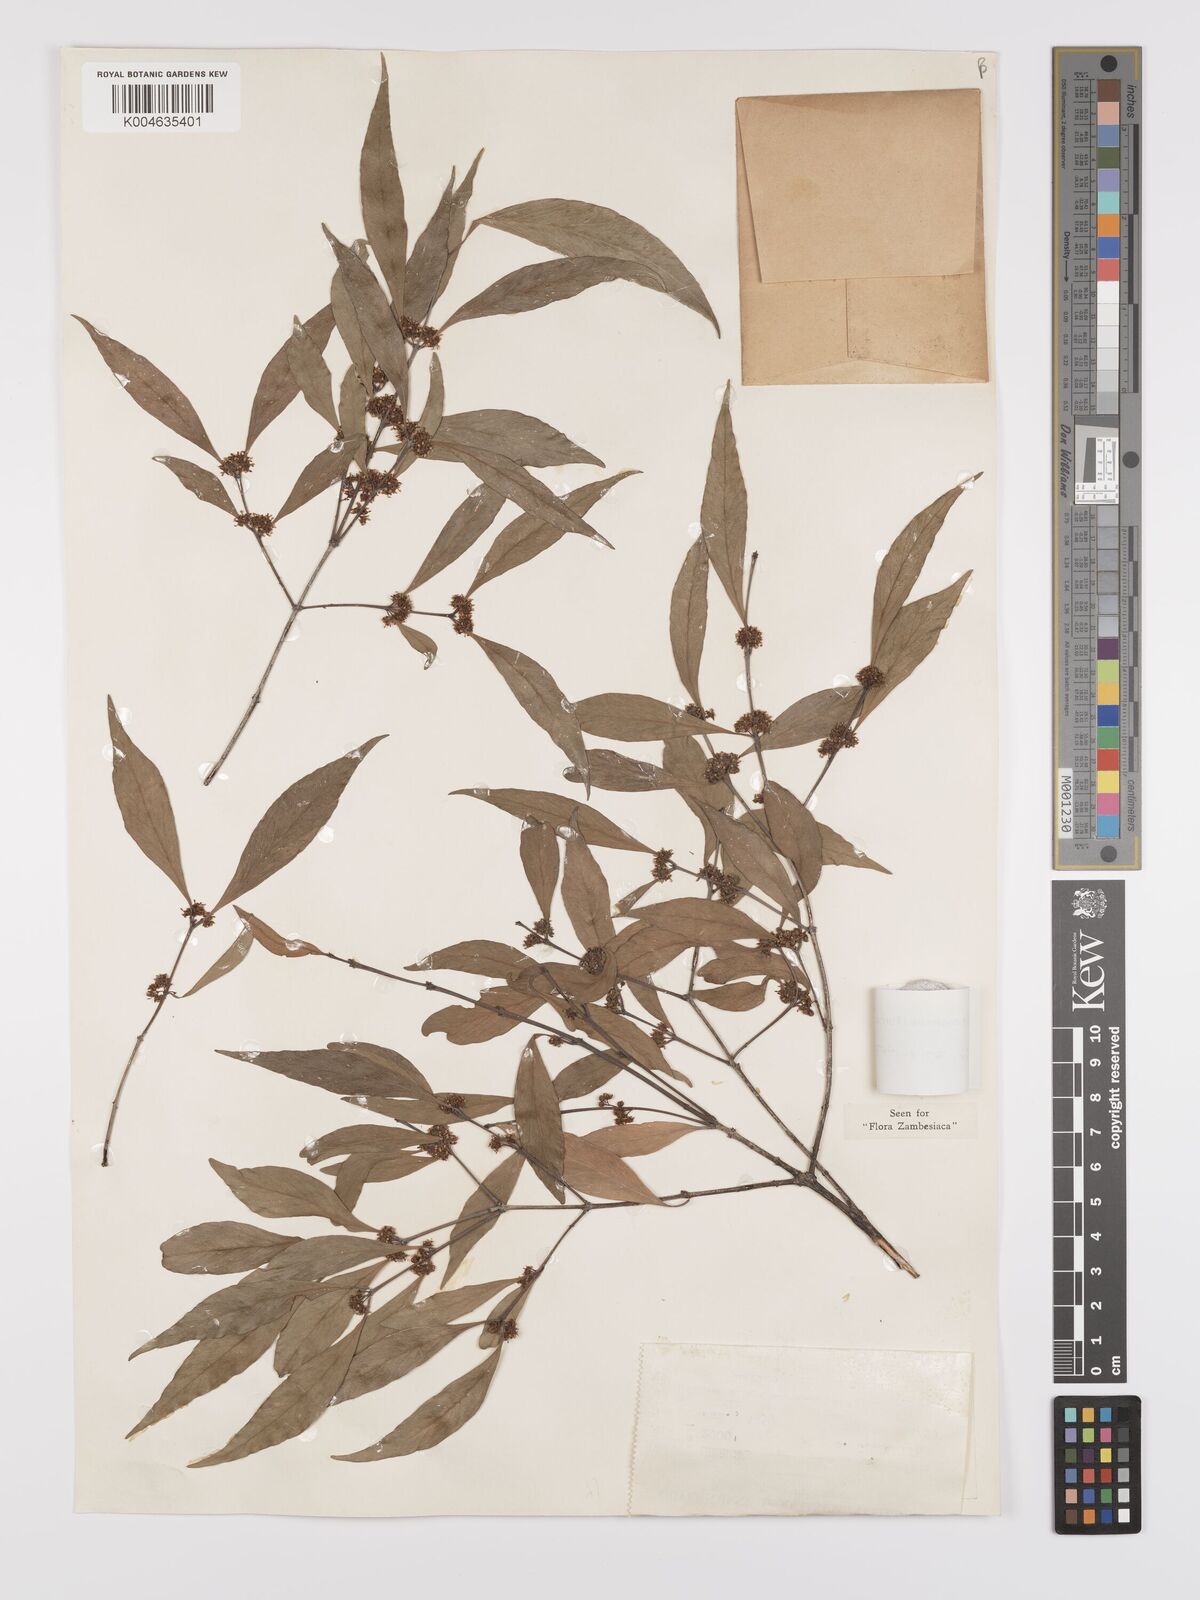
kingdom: Plantae
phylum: Tracheophyta
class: Magnoliopsida
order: Celastrales
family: Celastraceae
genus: Pleurostylia
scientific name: Pleurostylia africana
